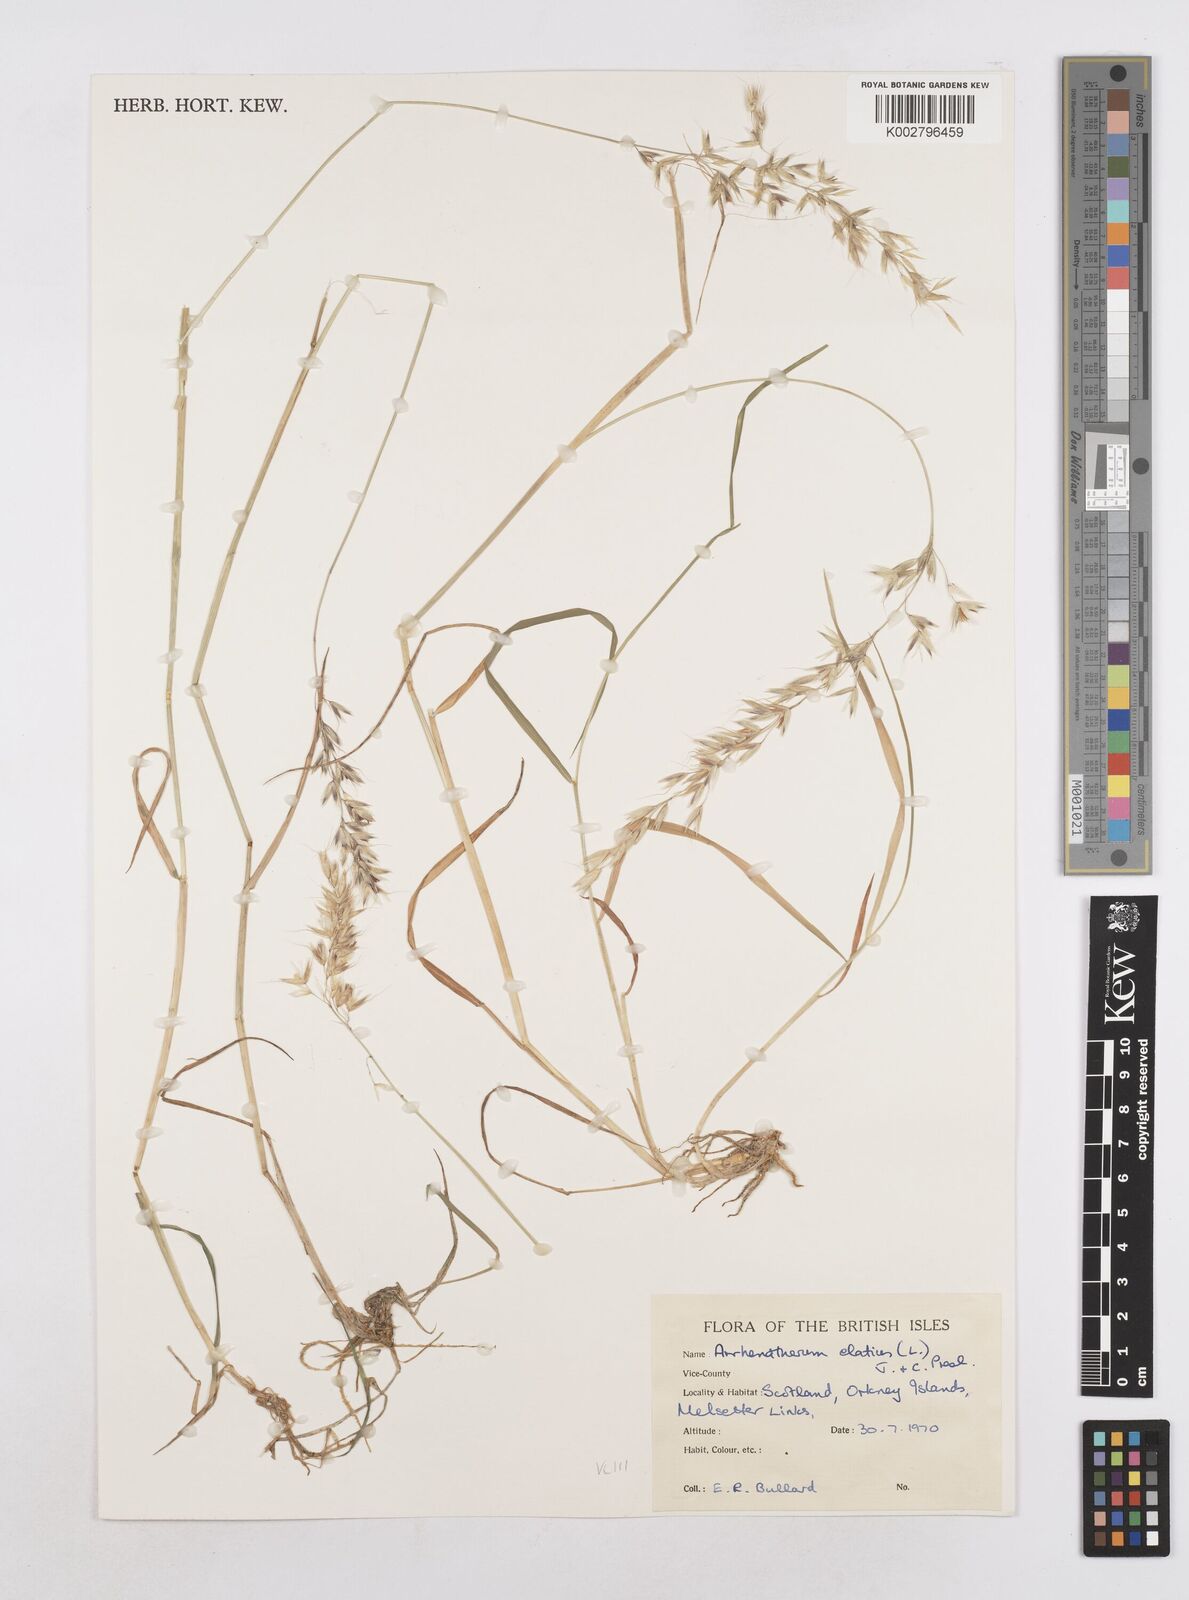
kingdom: Plantae
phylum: Tracheophyta
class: Liliopsida
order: Poales
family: Poaceae
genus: Arrhenatherum
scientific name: Arrhenatherum elatius
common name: Tall oatgrass
